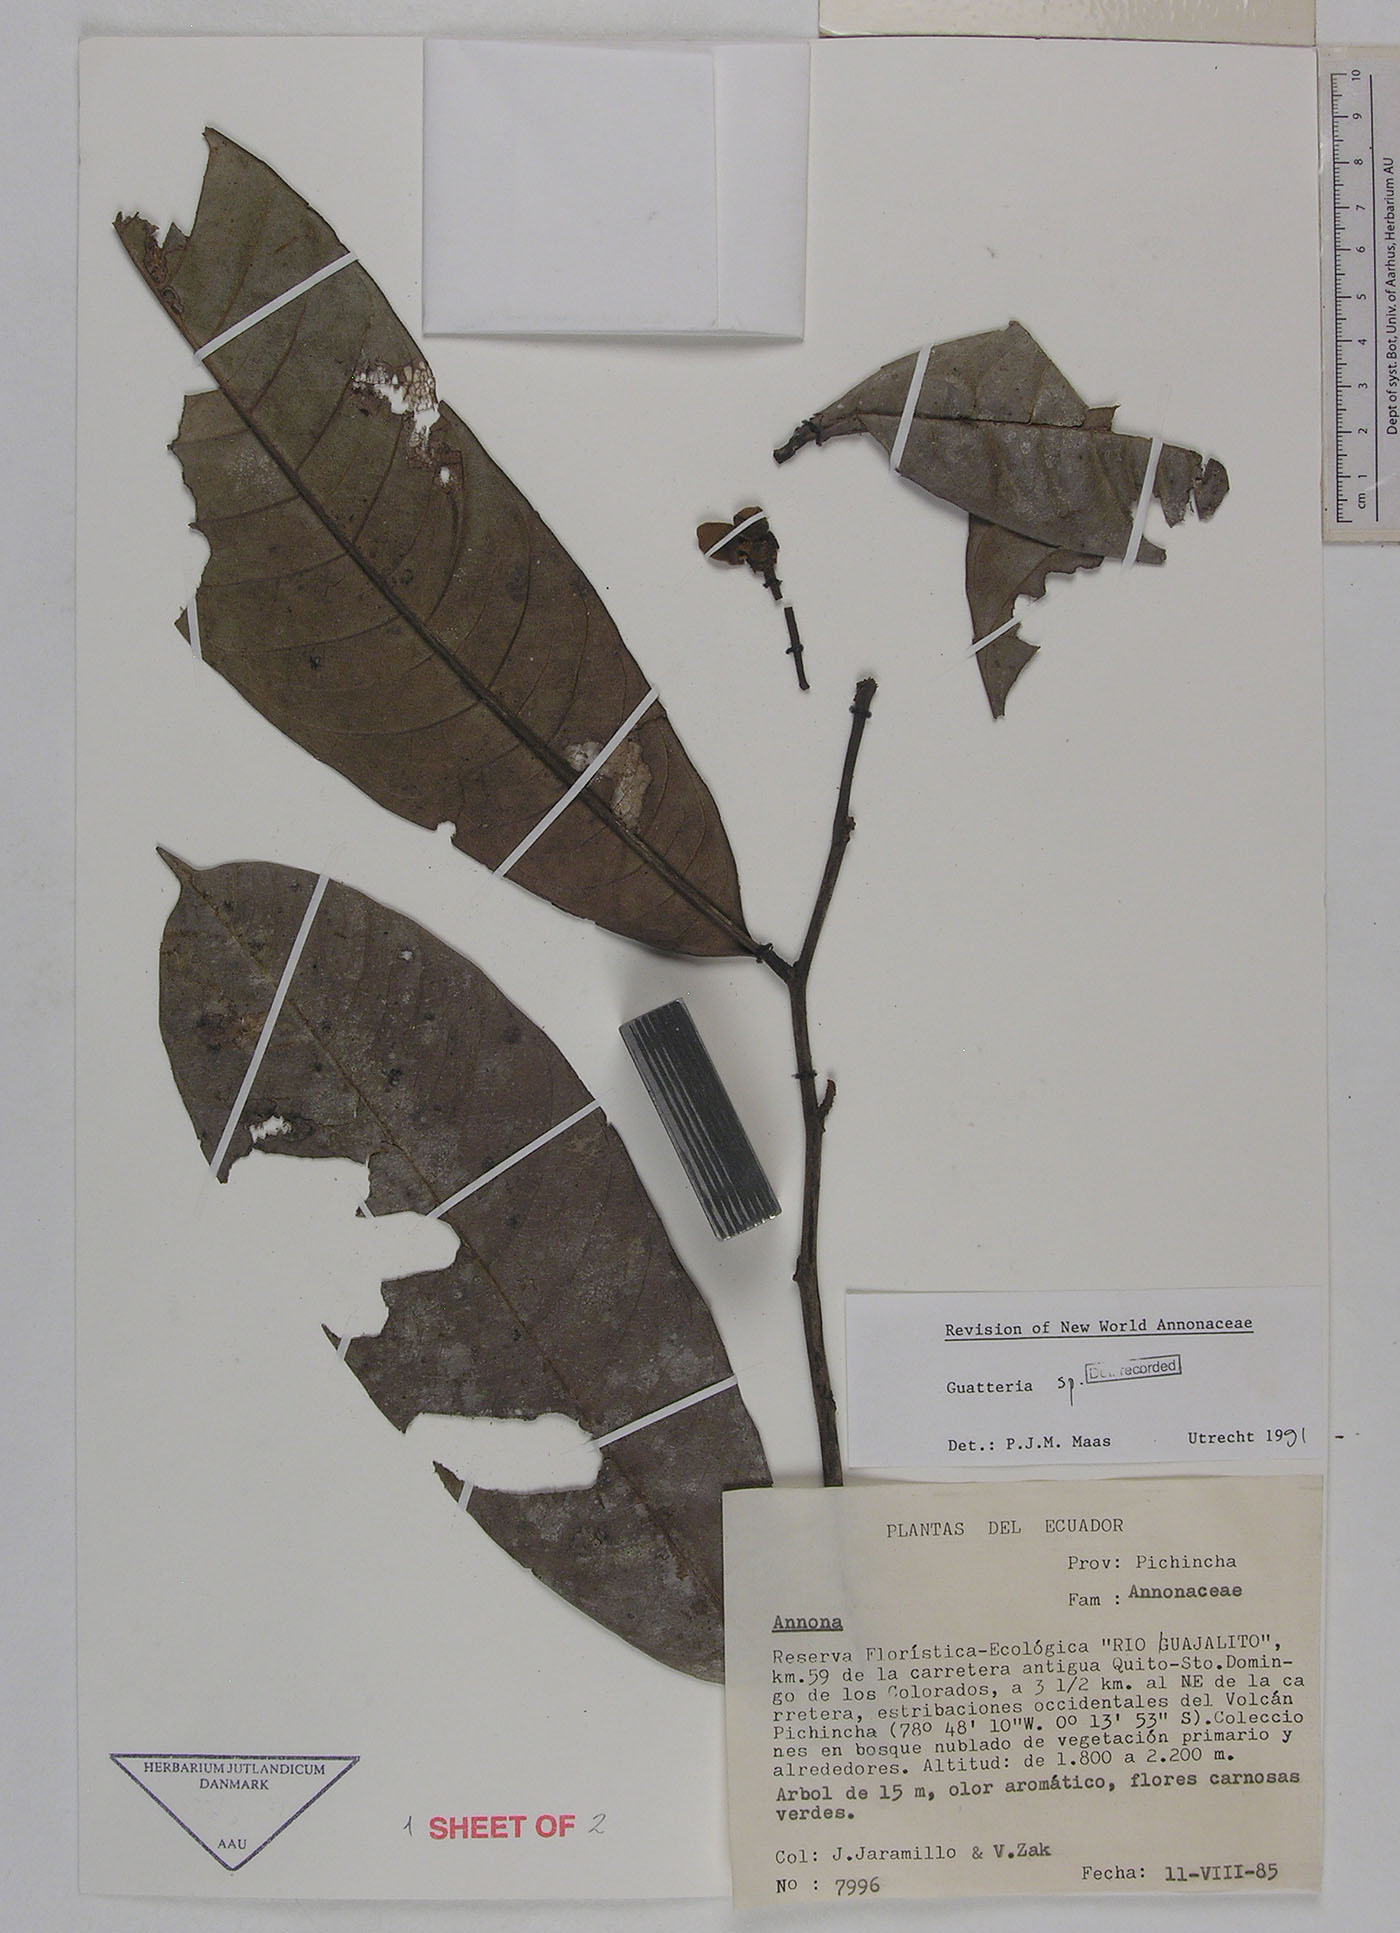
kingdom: Plantae
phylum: Tracheophyta
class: Magnoliopsida
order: Magnoliales
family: Annonaceae
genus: Guatteria
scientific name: Guatteria crassipes
